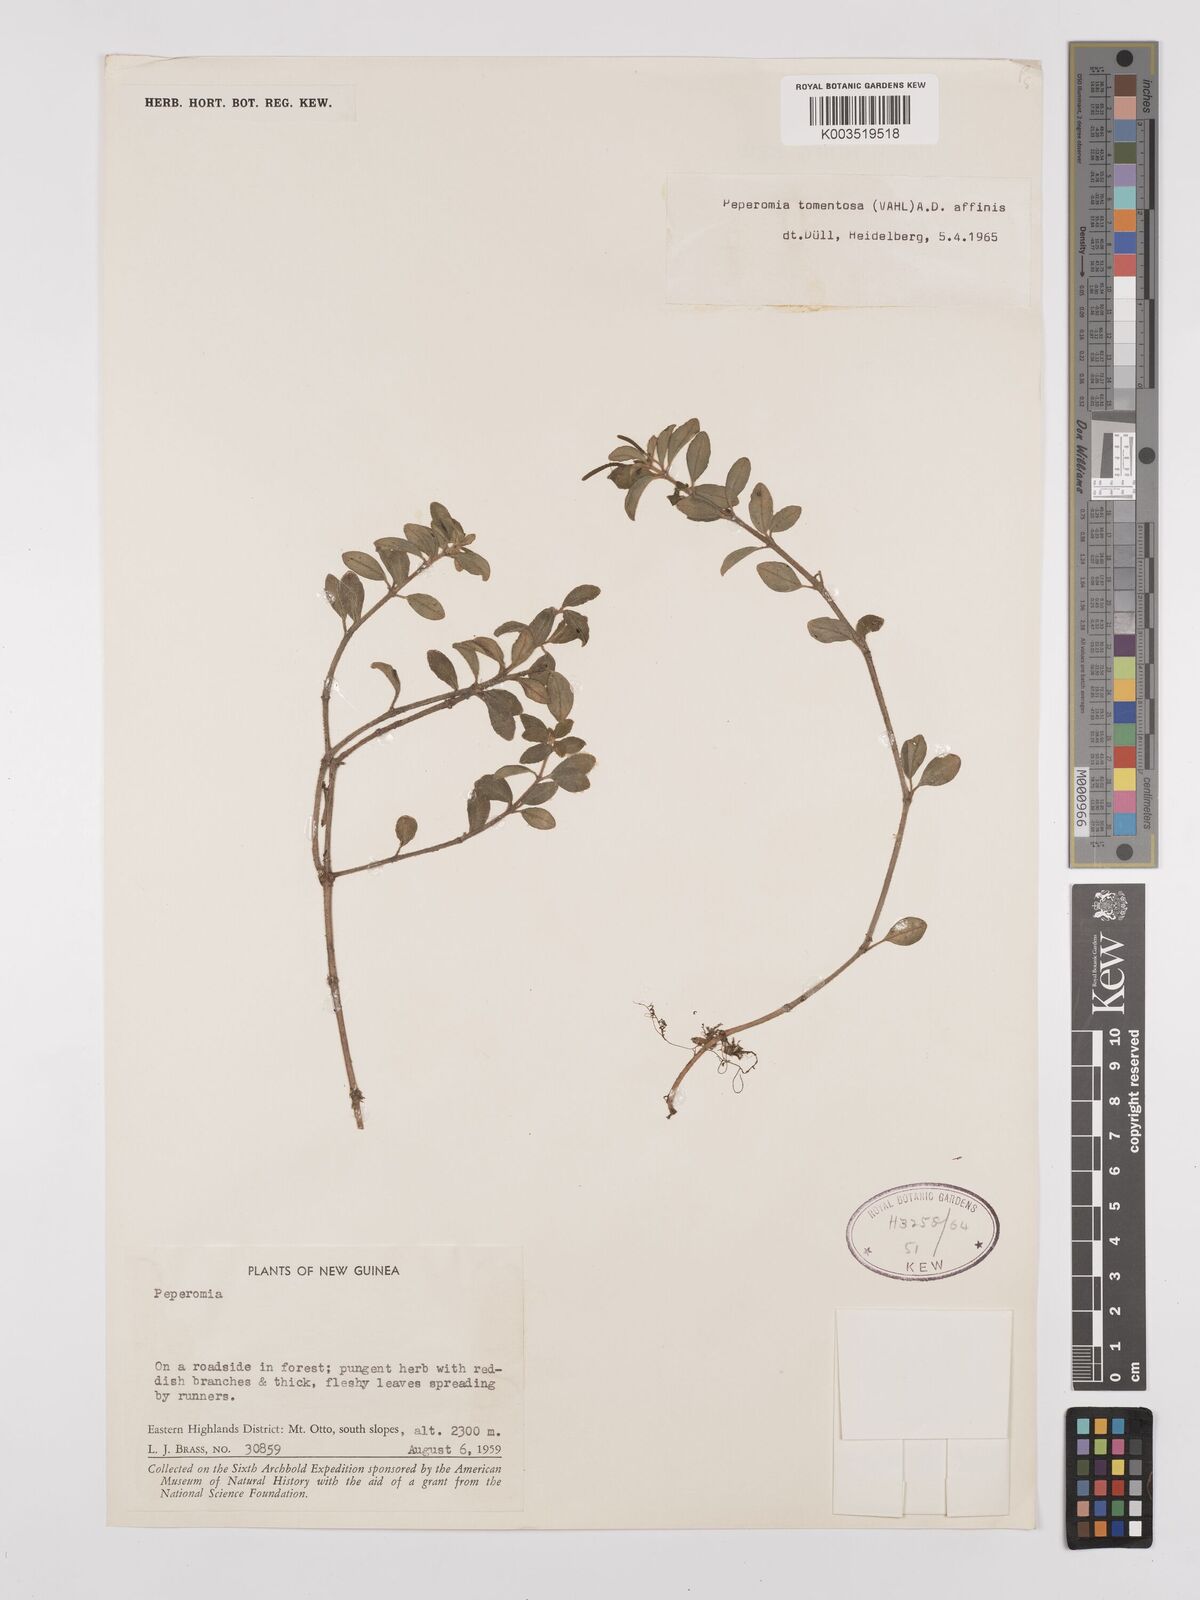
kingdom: Plantae
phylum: Tracheophyta
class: Magnoliopsida
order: Piperales
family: Piperaceae
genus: Peperomia
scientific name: Peperomia tomentosa
